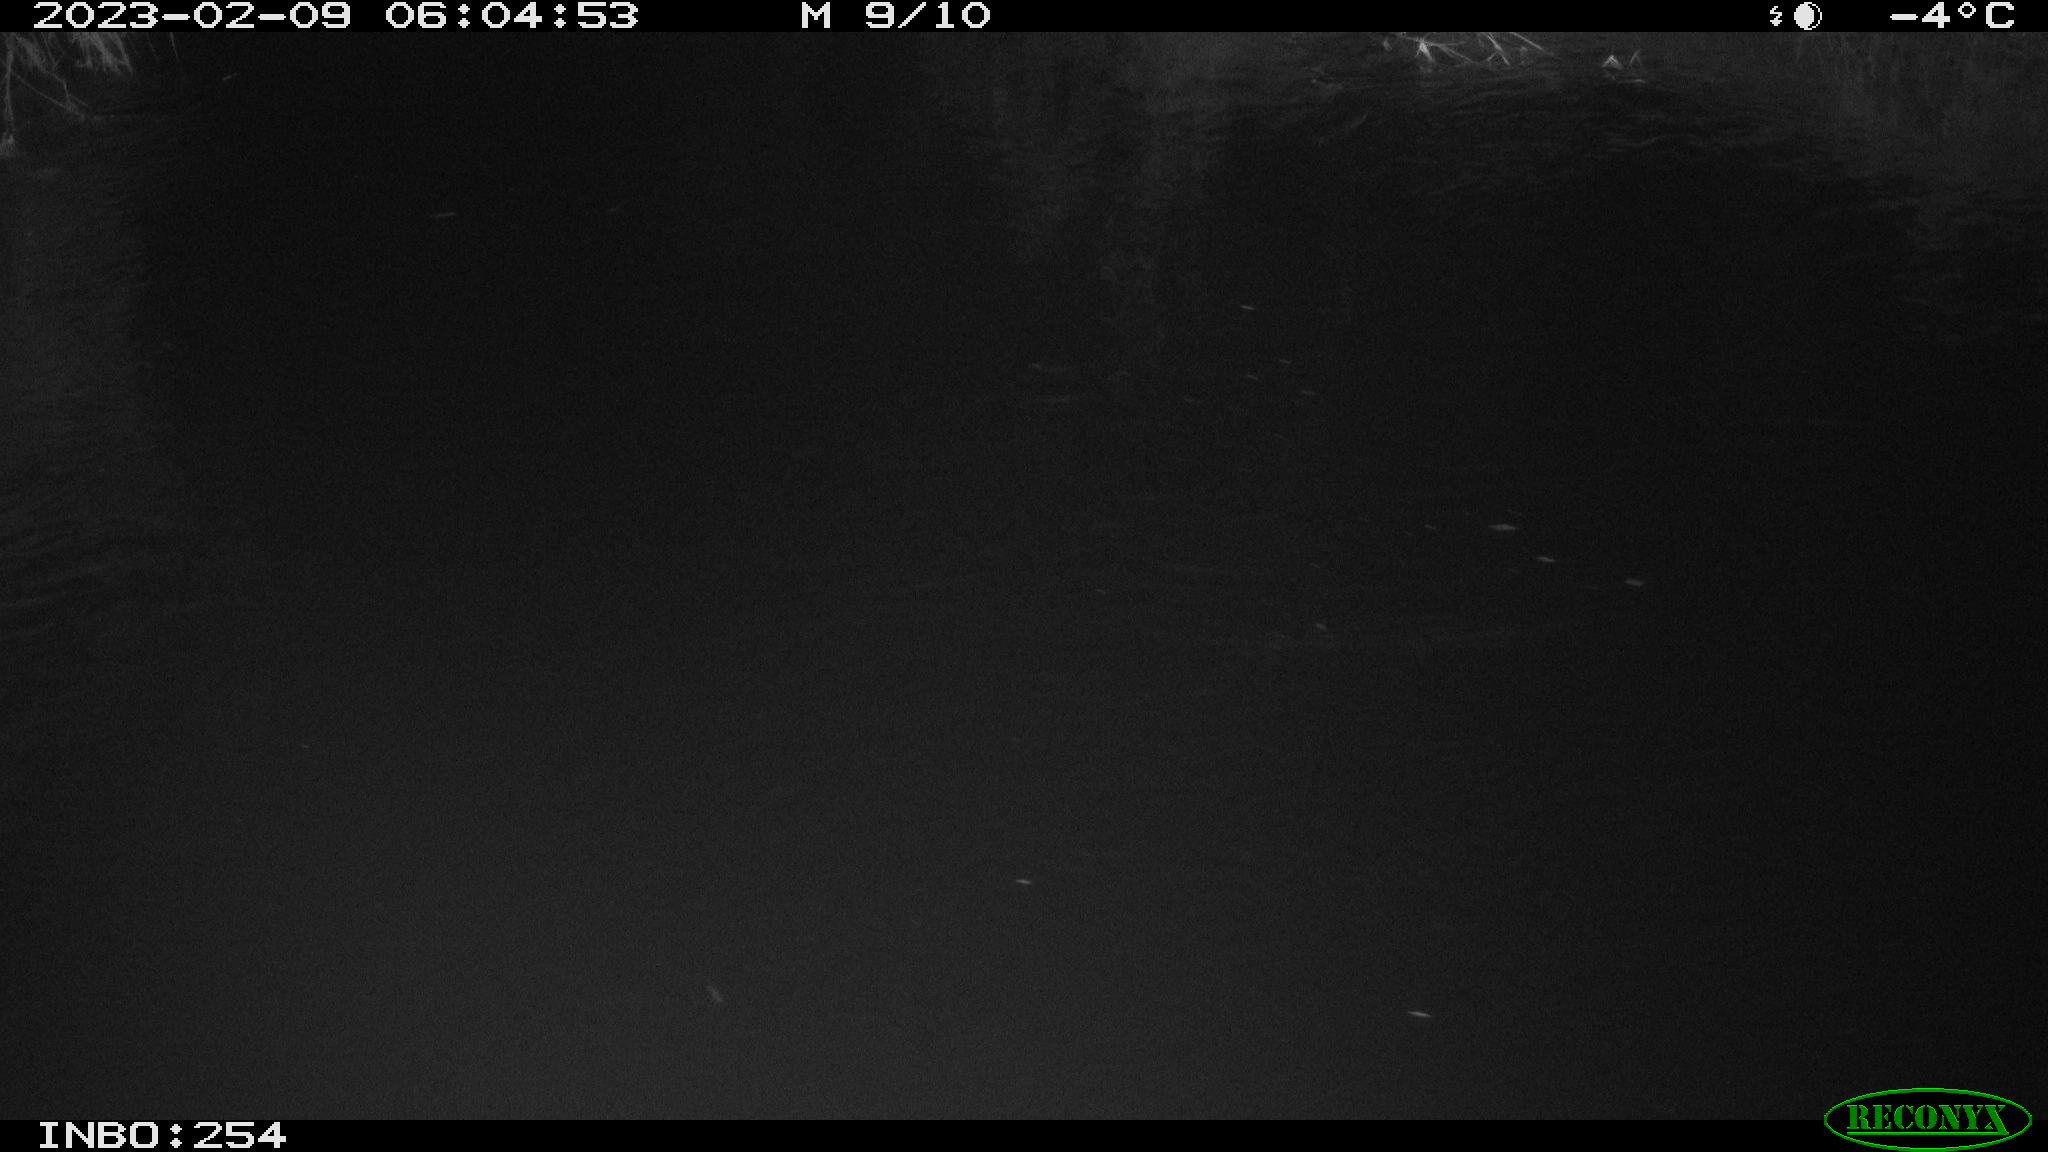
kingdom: Animalia
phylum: Chordata
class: Aves
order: Anseriformes
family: Anatidae
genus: Anas
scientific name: Anas
